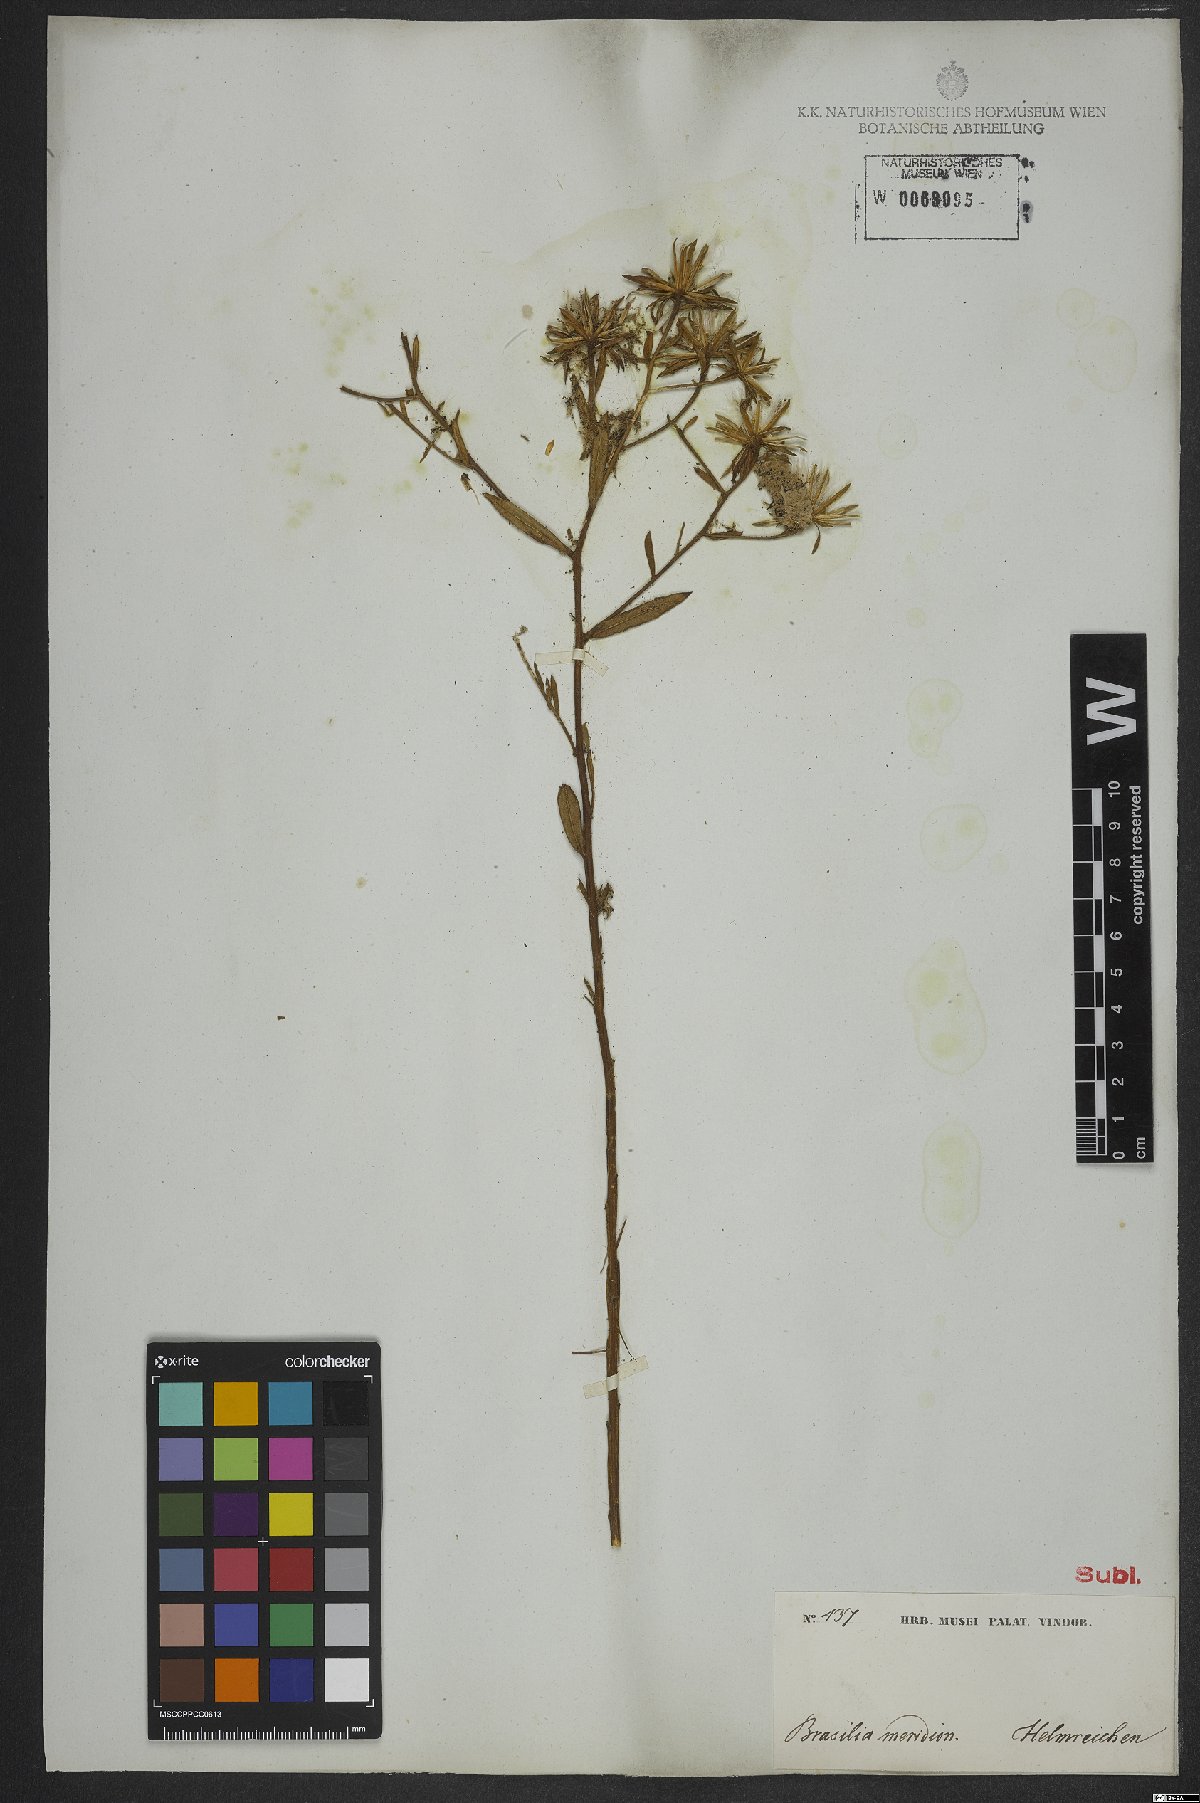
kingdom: Plantae
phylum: Tracheophyta
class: Magnoliopsida
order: Asterales
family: Asteraceae
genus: Trixis
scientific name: Trixis glutinosa
